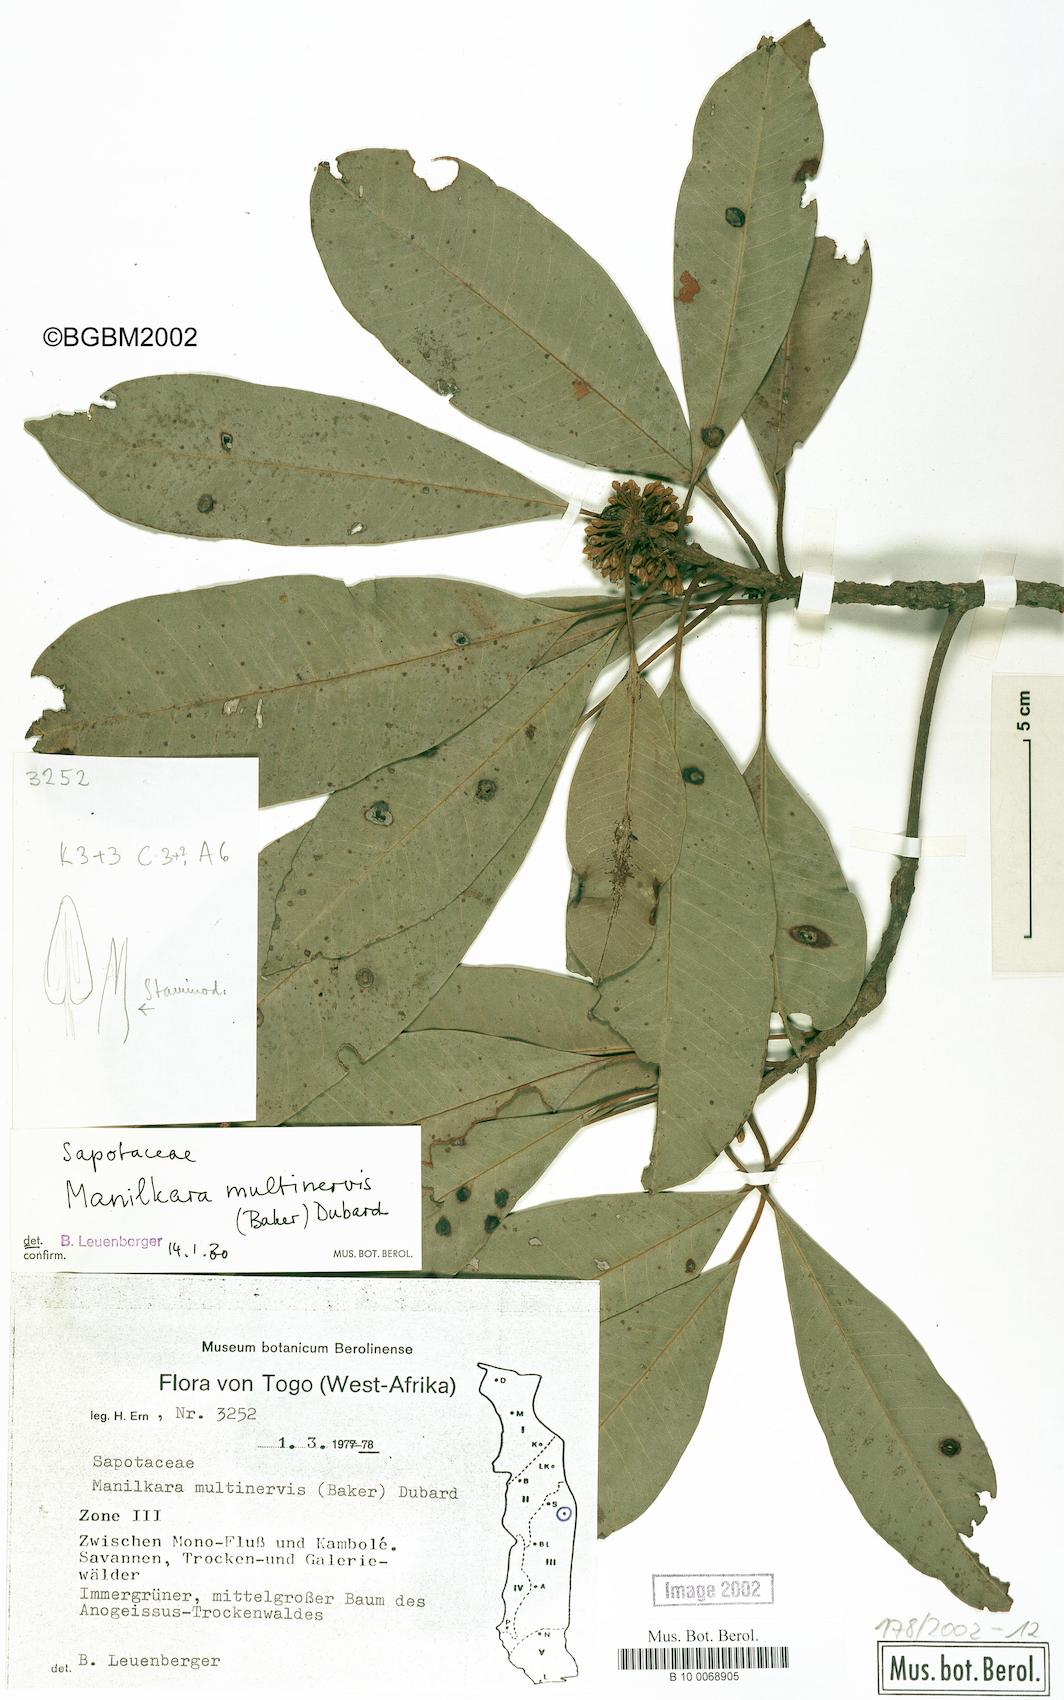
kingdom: Plantae
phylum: Tracheophyta
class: Magnoliopsida
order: Ericales
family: Sapotaceae
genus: Manilkara
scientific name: Manilkara obovata
